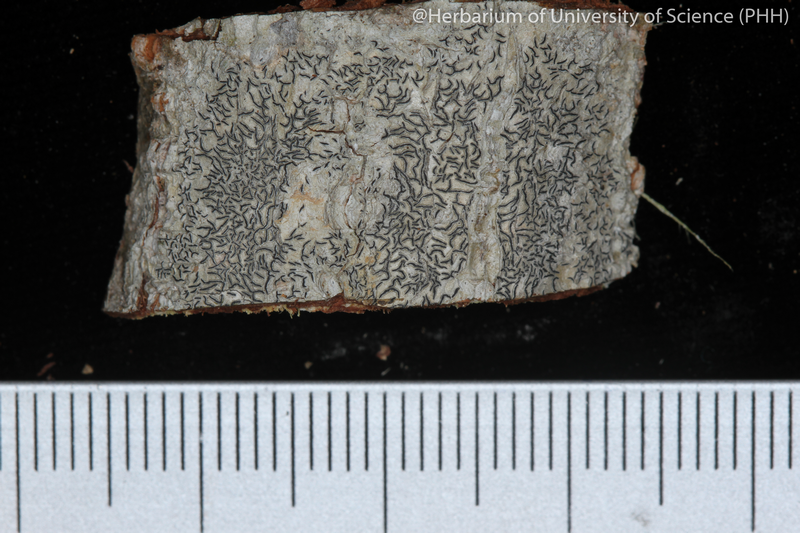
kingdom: Fungi
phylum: Ascomycota
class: Lecanoromycetes
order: Ostropales
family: Graphidaceae
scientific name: Graphidaceae
